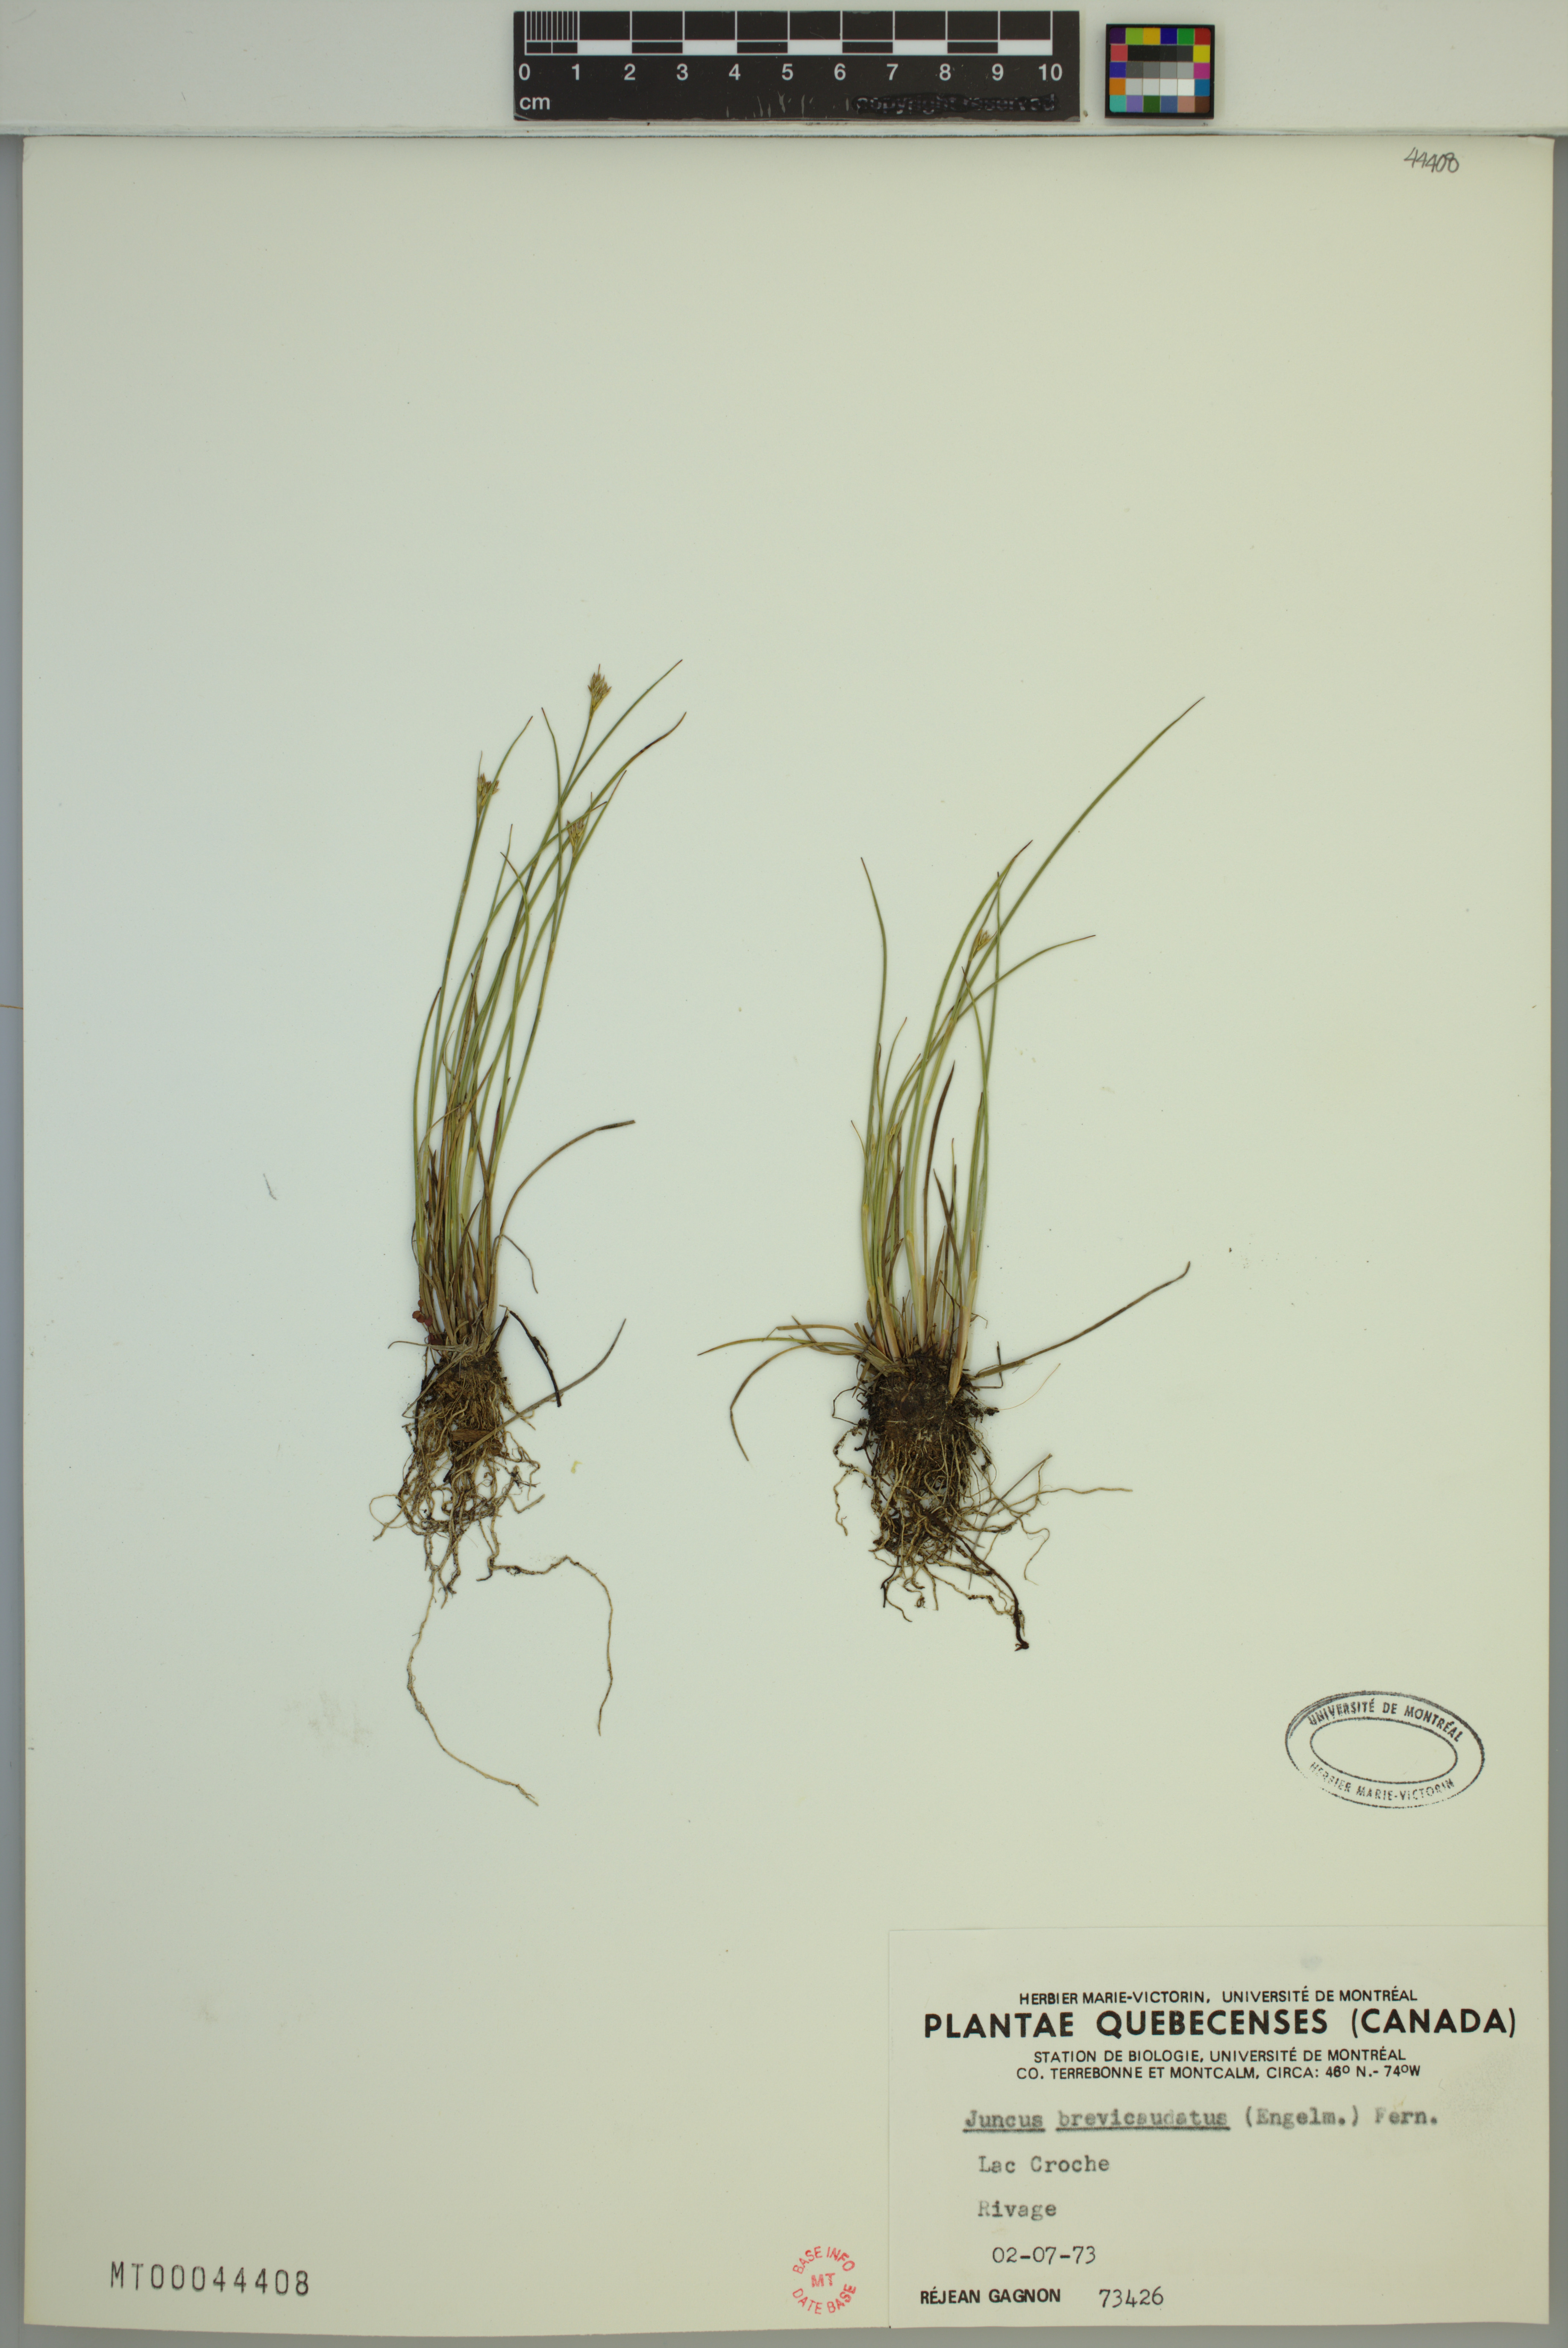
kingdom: Plantae
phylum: Tracheophyta
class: Liliopsida
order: Poales
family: Juncaceae
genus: Juncus
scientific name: Juncus brevicaudatus
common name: Narrow-panicle rush
